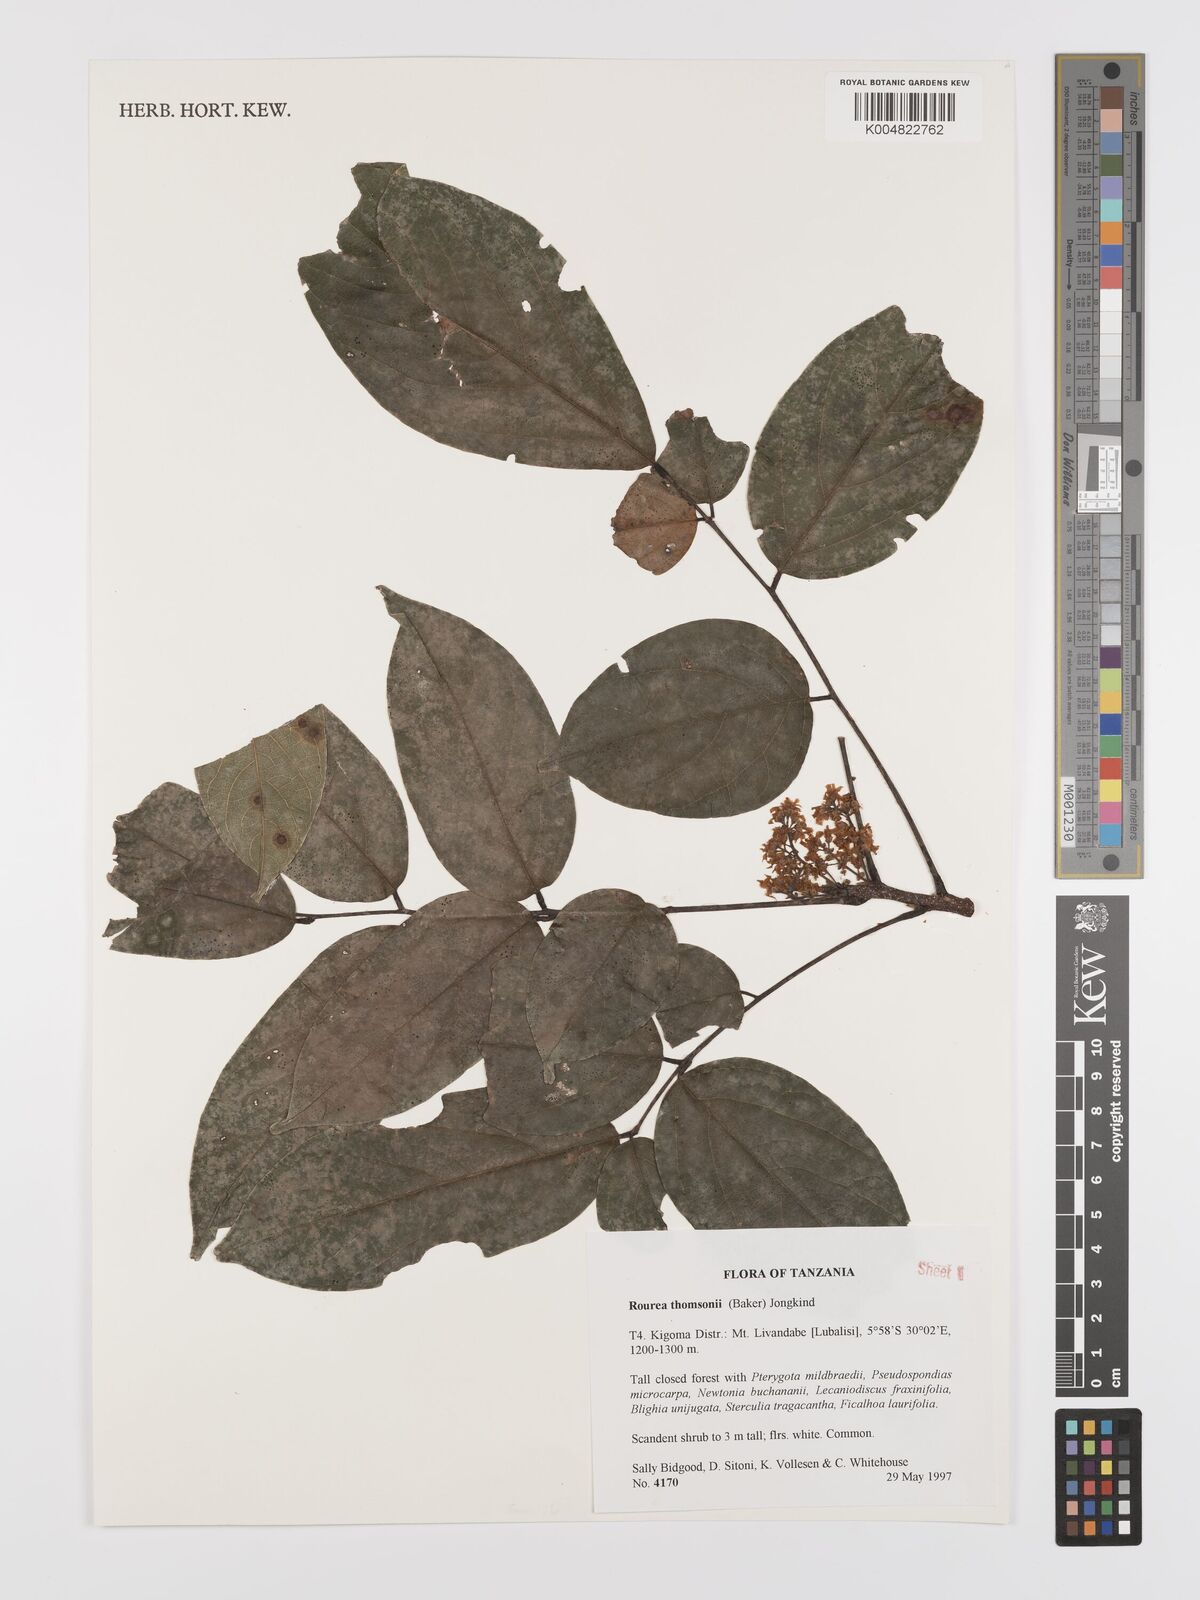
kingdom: Plantae
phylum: Tracheophyta
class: Magnoliopsida
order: Oxalidales
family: Connaraceae
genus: Rourea
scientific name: Rourea thomsonii
